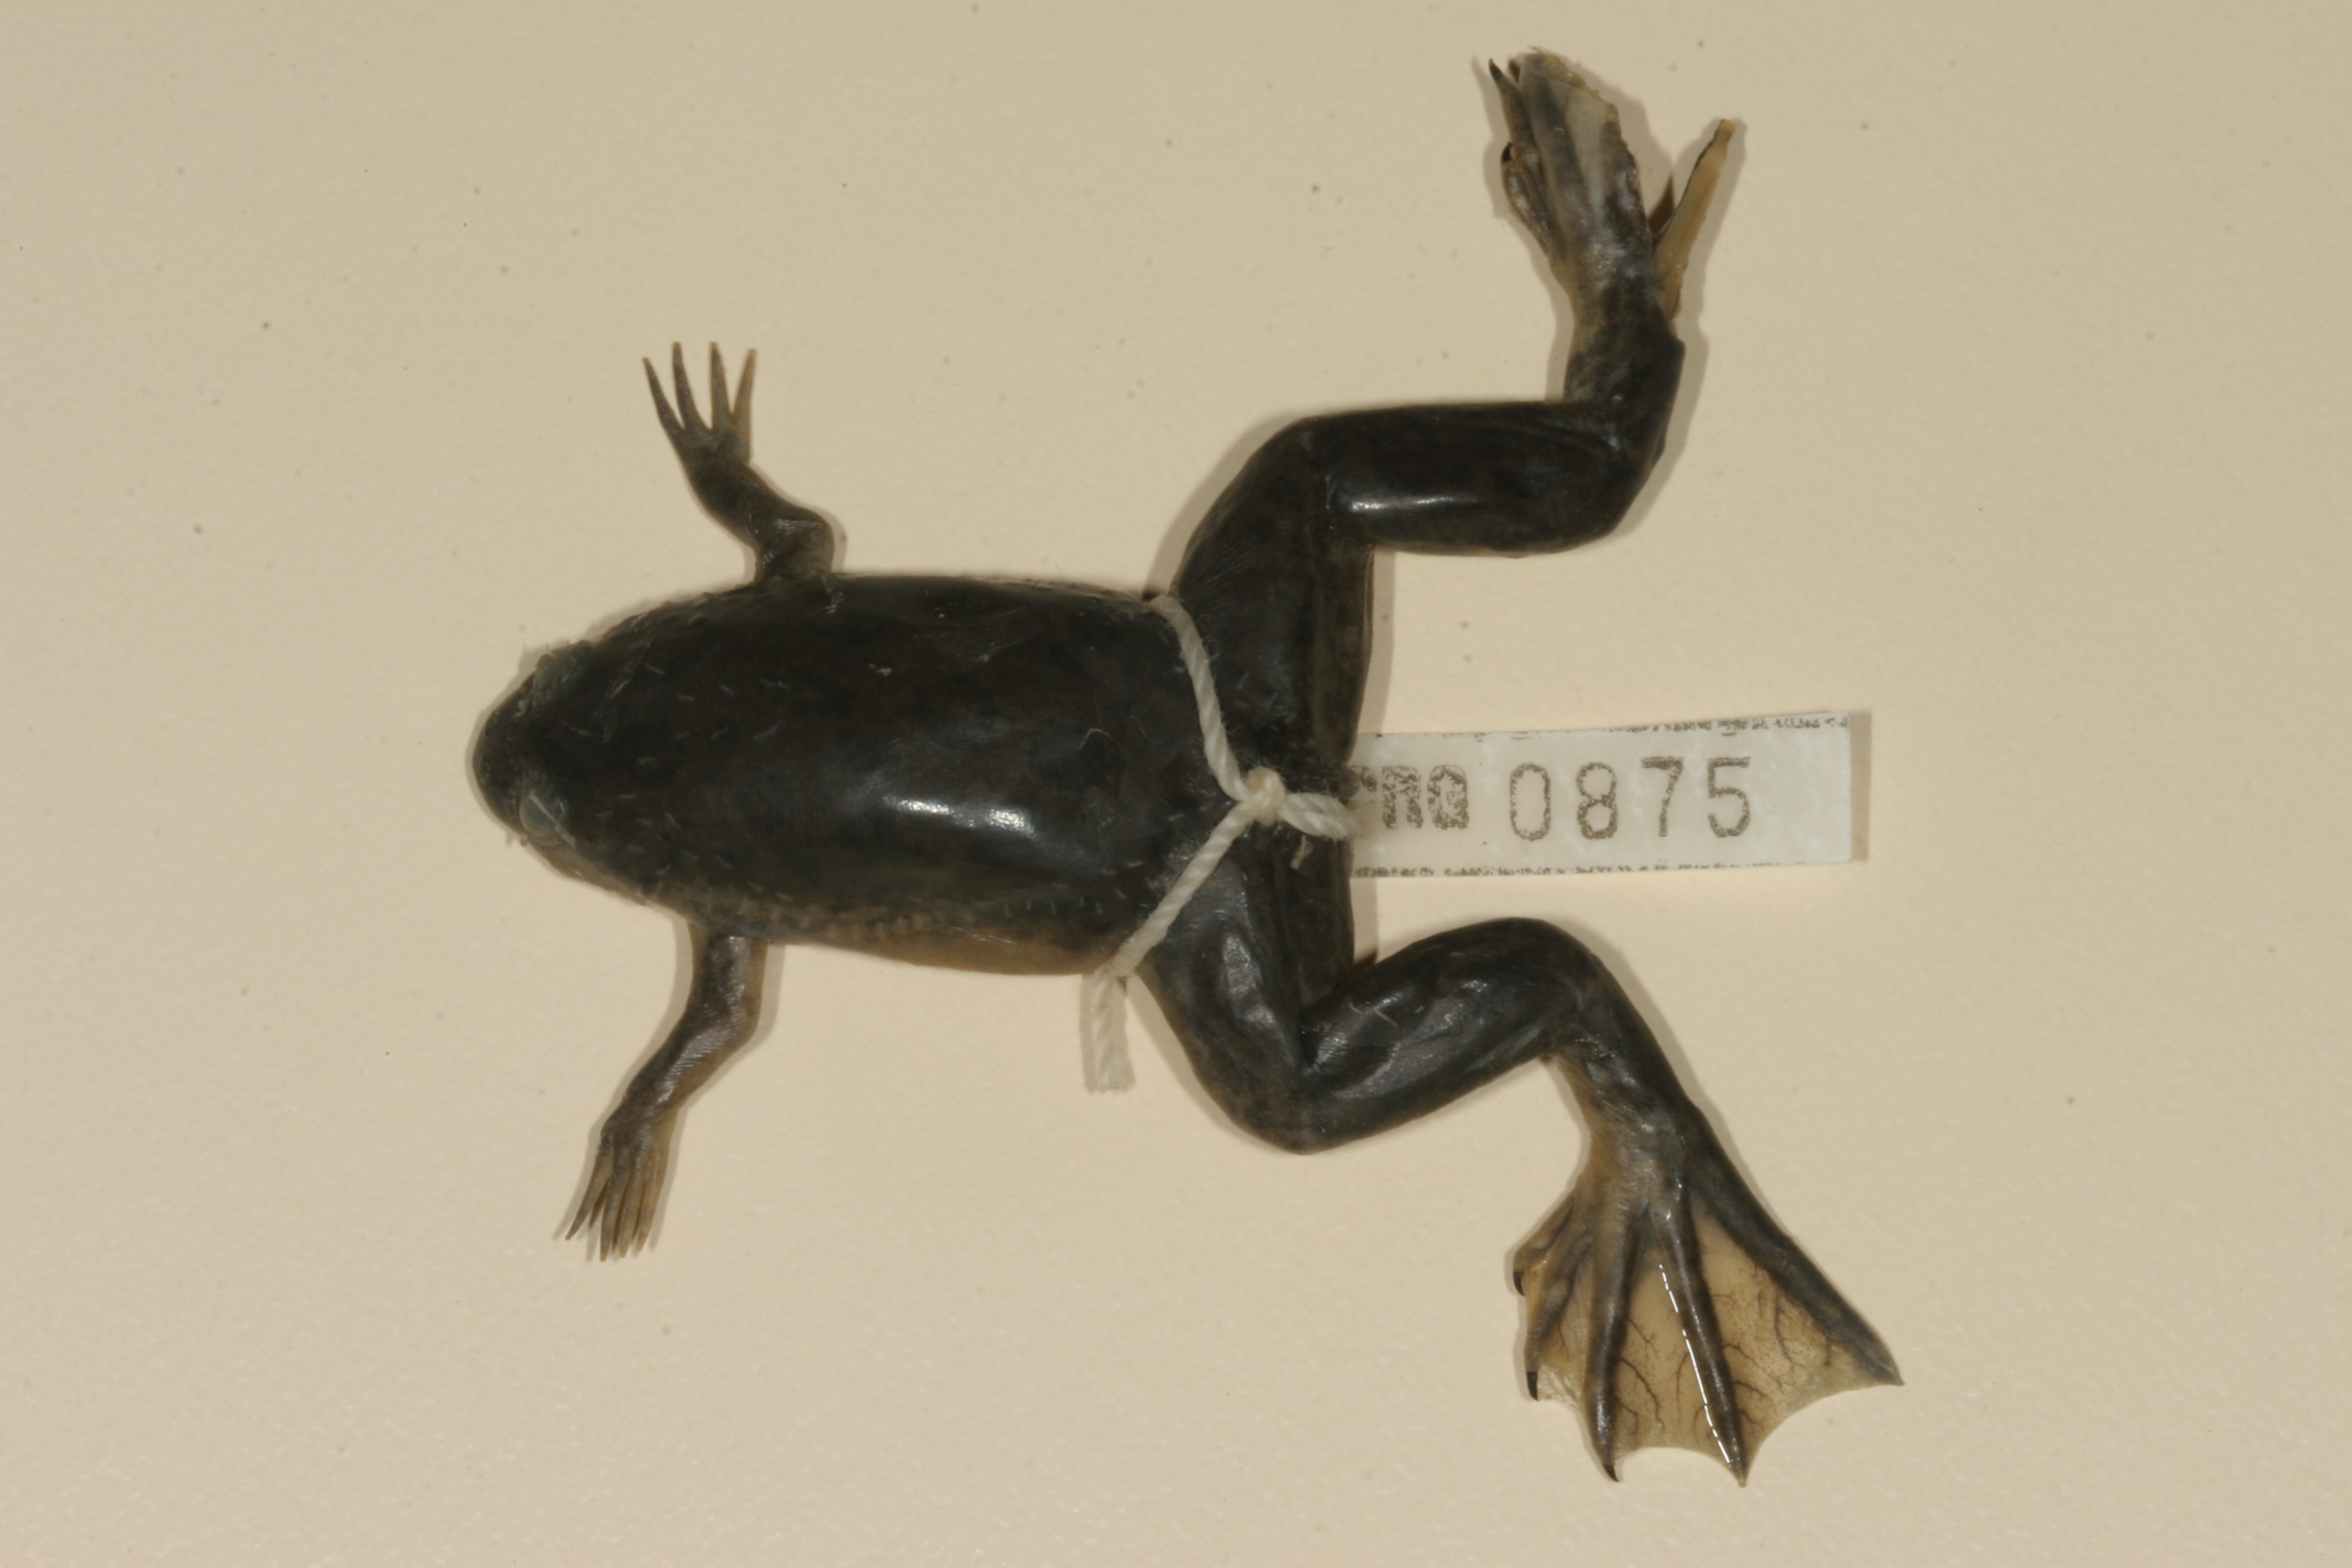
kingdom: Animalia
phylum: Chordata
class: Amphibia
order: Anura
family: Pipidae
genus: Xenopus
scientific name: Xenopus laevis
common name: African clawed frog
